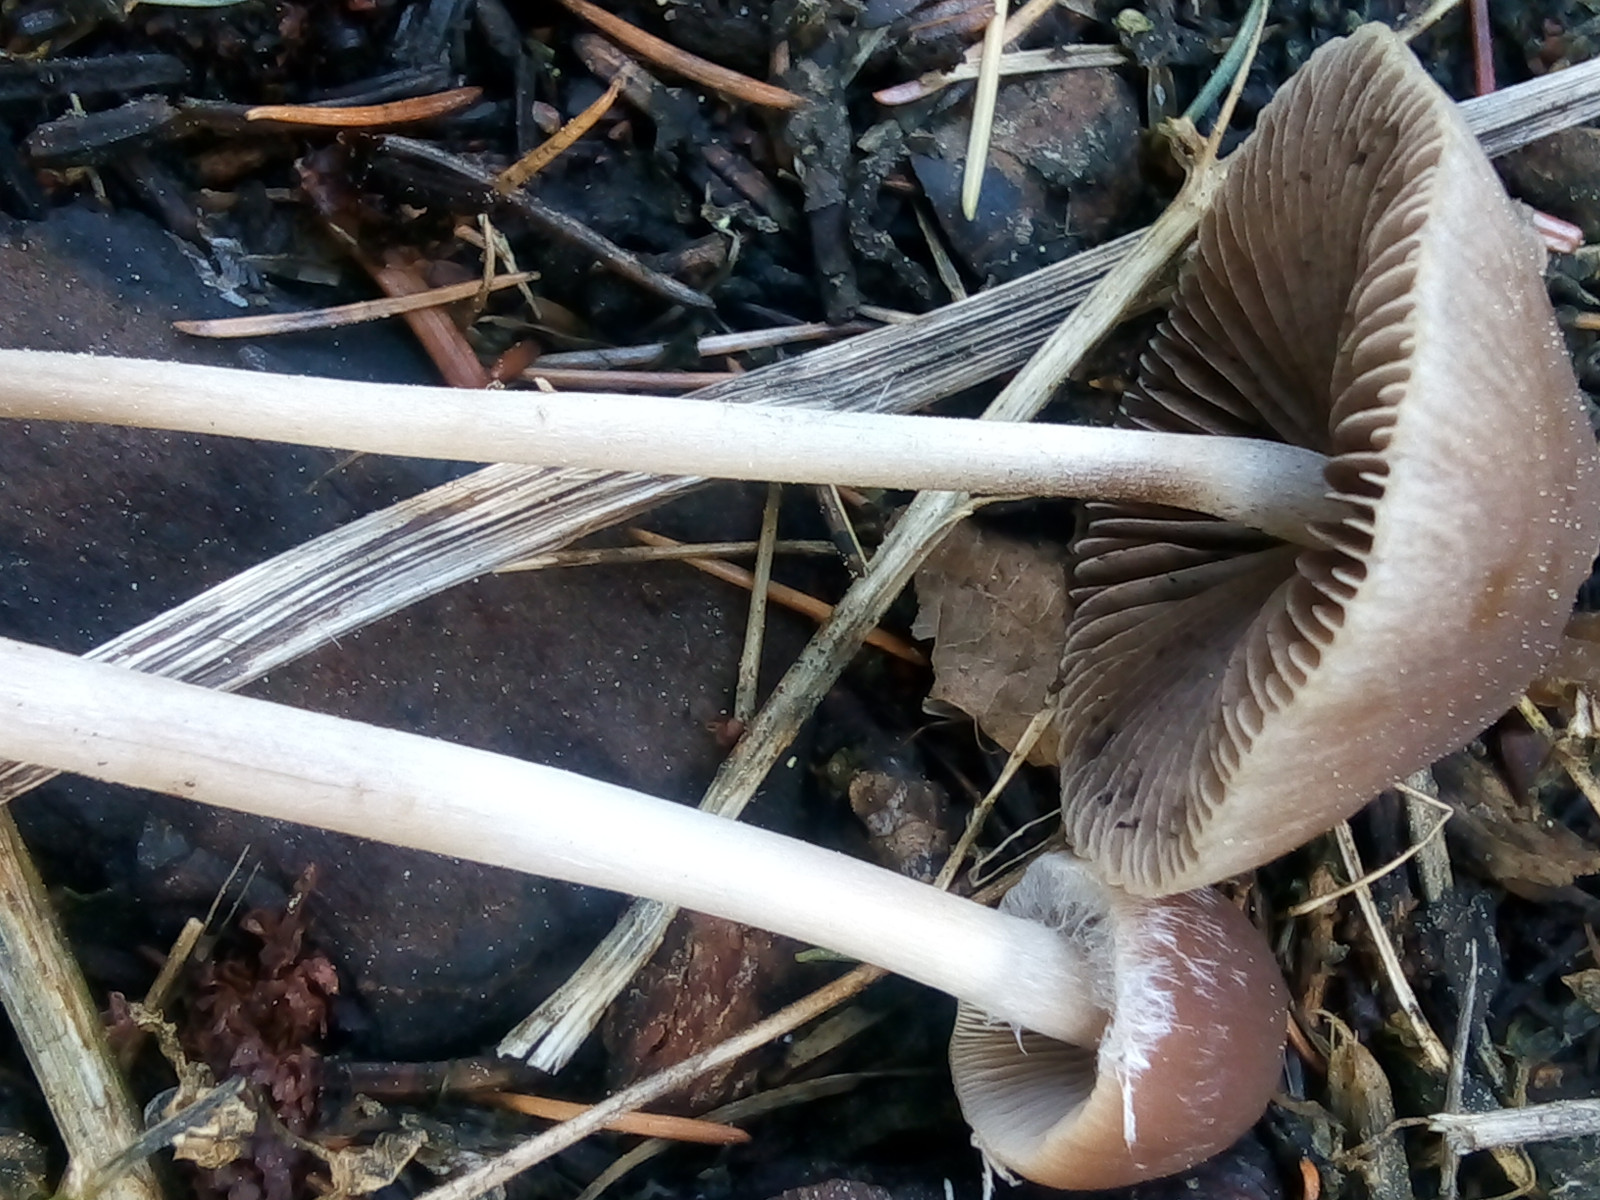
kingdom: Fungi
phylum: Basidiomycota
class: Agaricomycetes
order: Agaricales
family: Psathyrellaceae
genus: Psathyrella
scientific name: Psathyrella microrhiza
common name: rod-mørkhat
